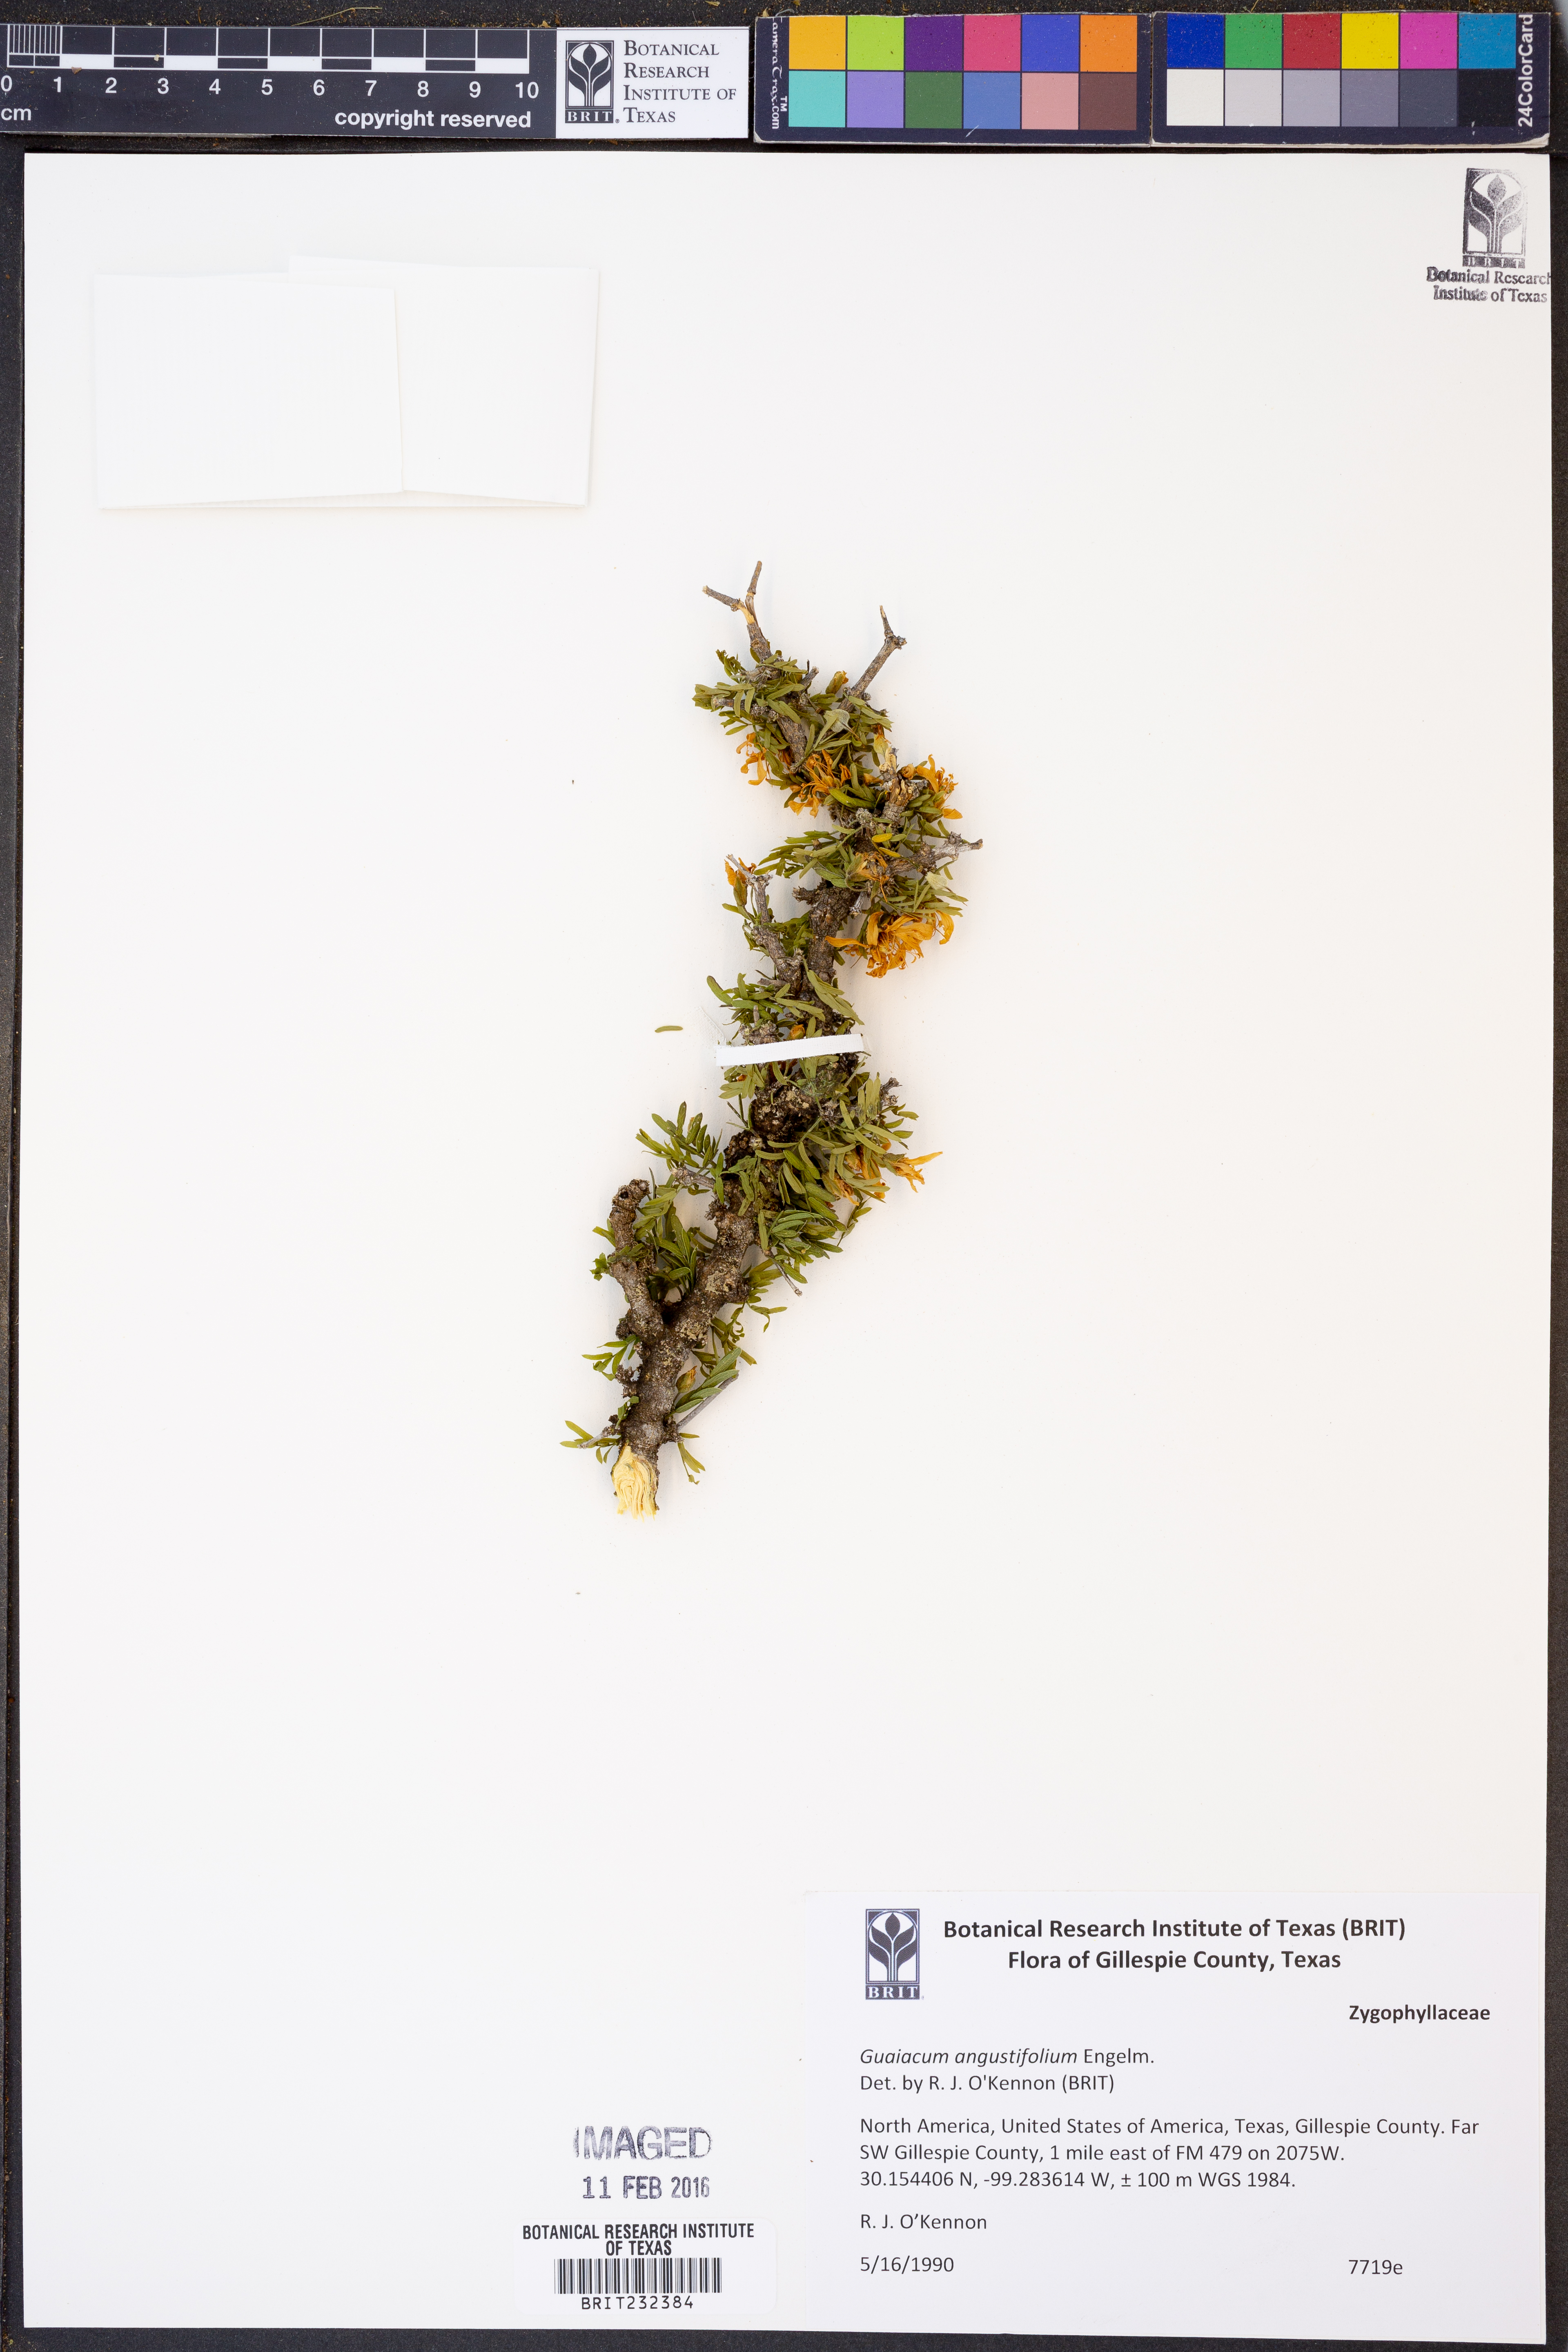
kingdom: Plantae
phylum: Tracheophyta
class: Magnoliopsida
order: Zygophyllales
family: Zygophyllaceae
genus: Porlieria
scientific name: Porlieria angustifolia
